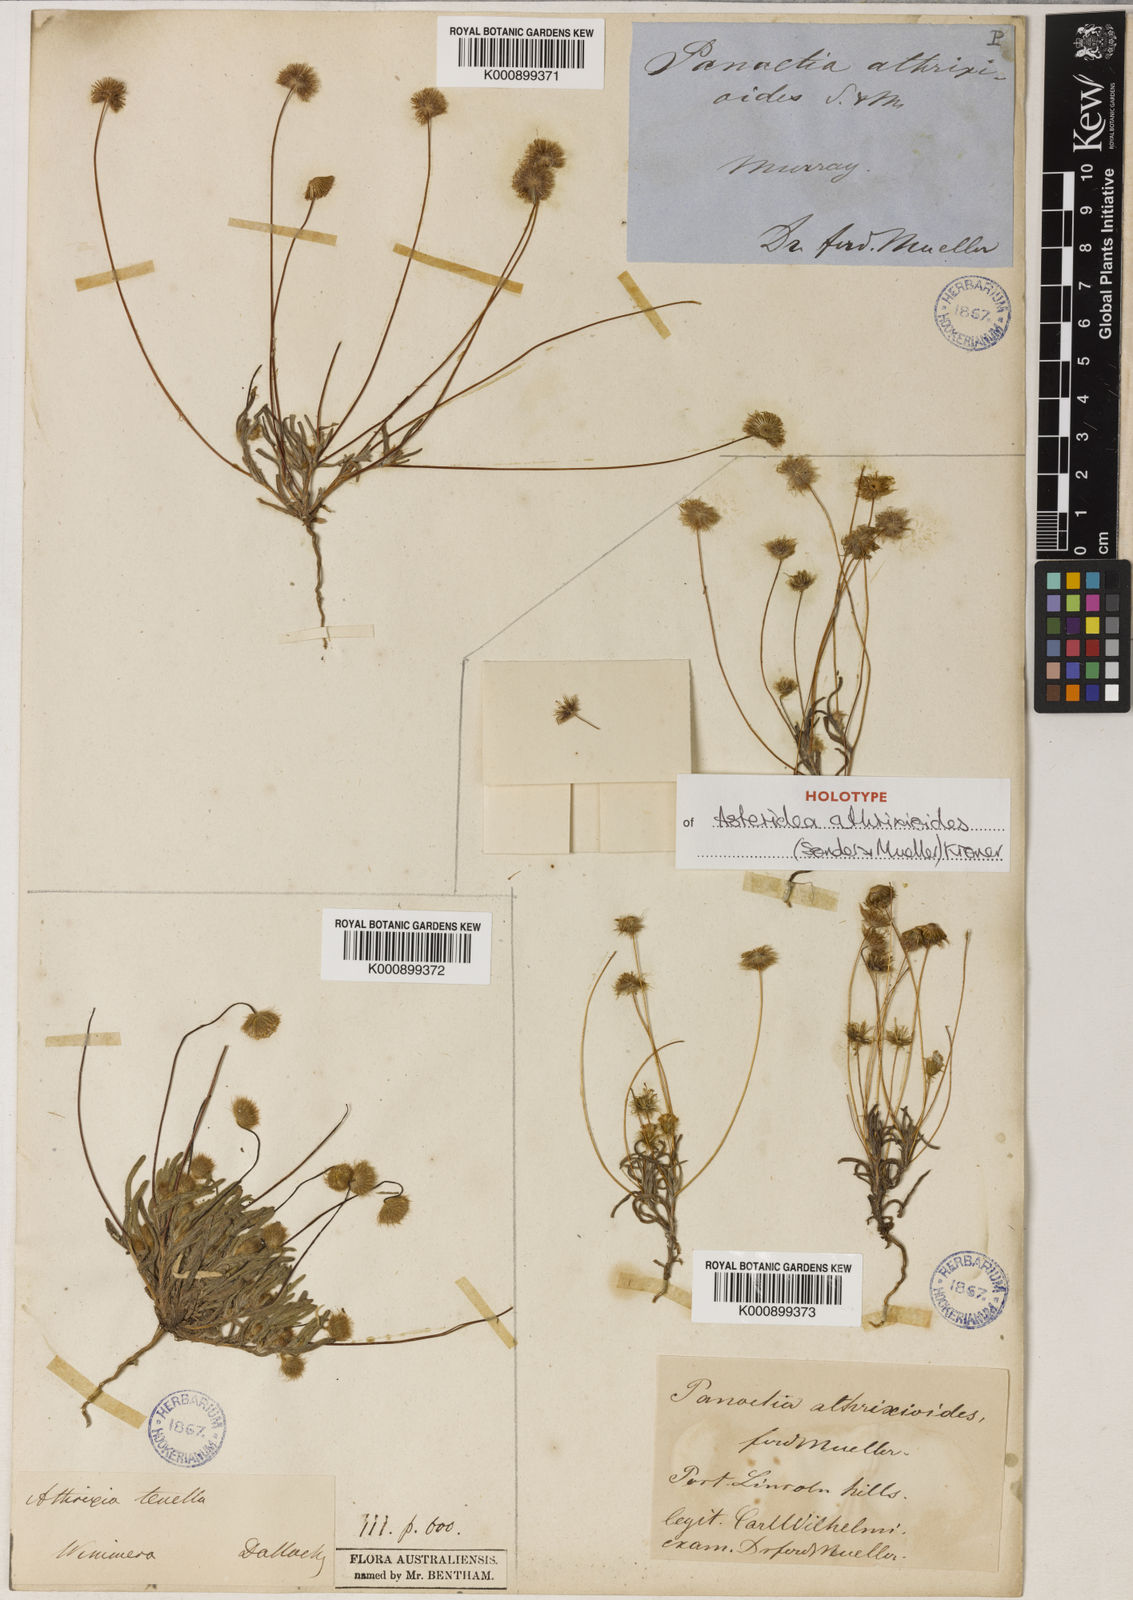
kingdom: Plantae
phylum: Tracheophyta
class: Magnoliopsida
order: Asterales
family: Asteraceae
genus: Asteridea
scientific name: Asteridea athrixioides
